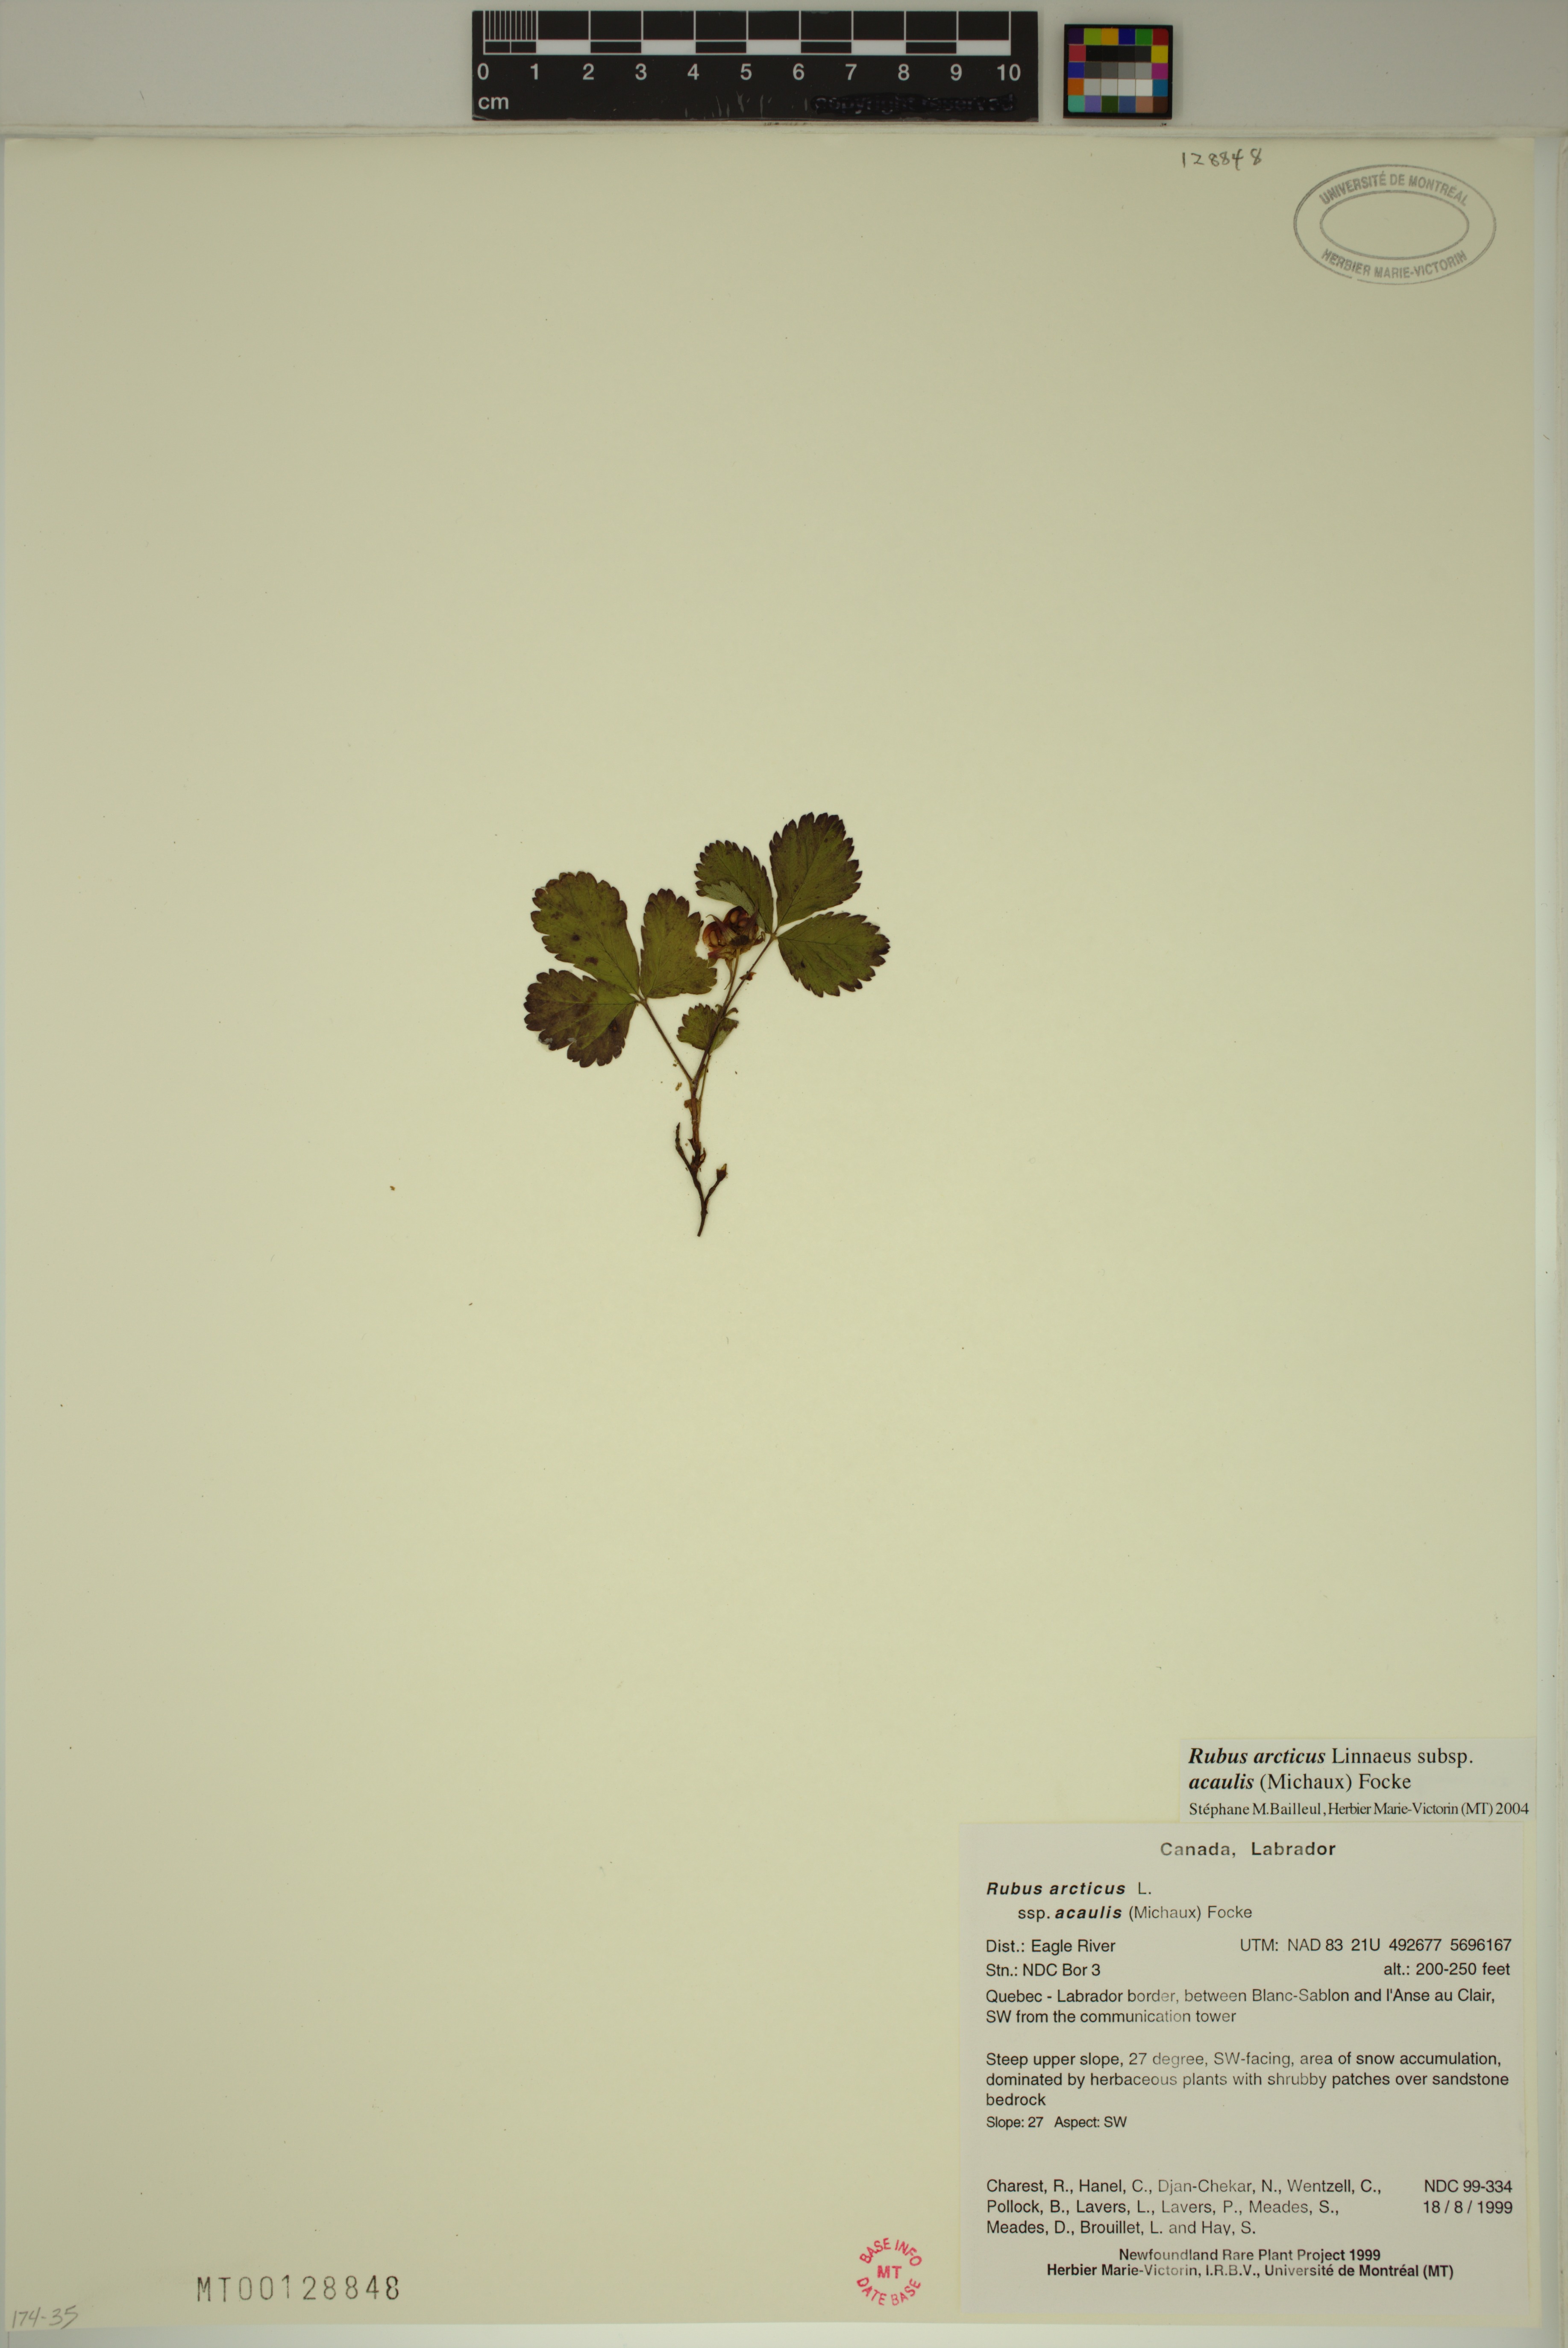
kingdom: Plantae
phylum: Tracheophyta
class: Magnoliopsida
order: Rosales
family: Rosaceae
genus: Rubus
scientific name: Rubus arcticus
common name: Arctic bramble
